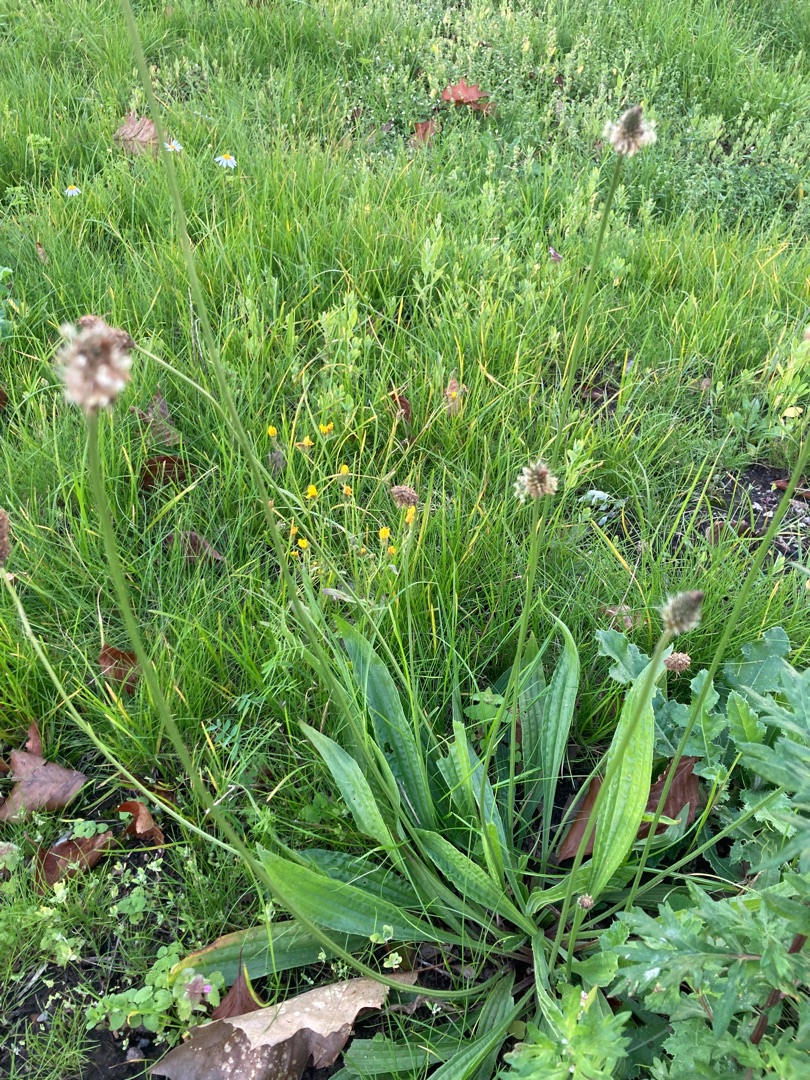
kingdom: Plantae
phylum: Tracheophyta
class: Magnoliopsida
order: Lamiales
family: Plantaginaceae
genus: Plantago
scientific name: Plantago lanceolata
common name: Lancet-vejbred
